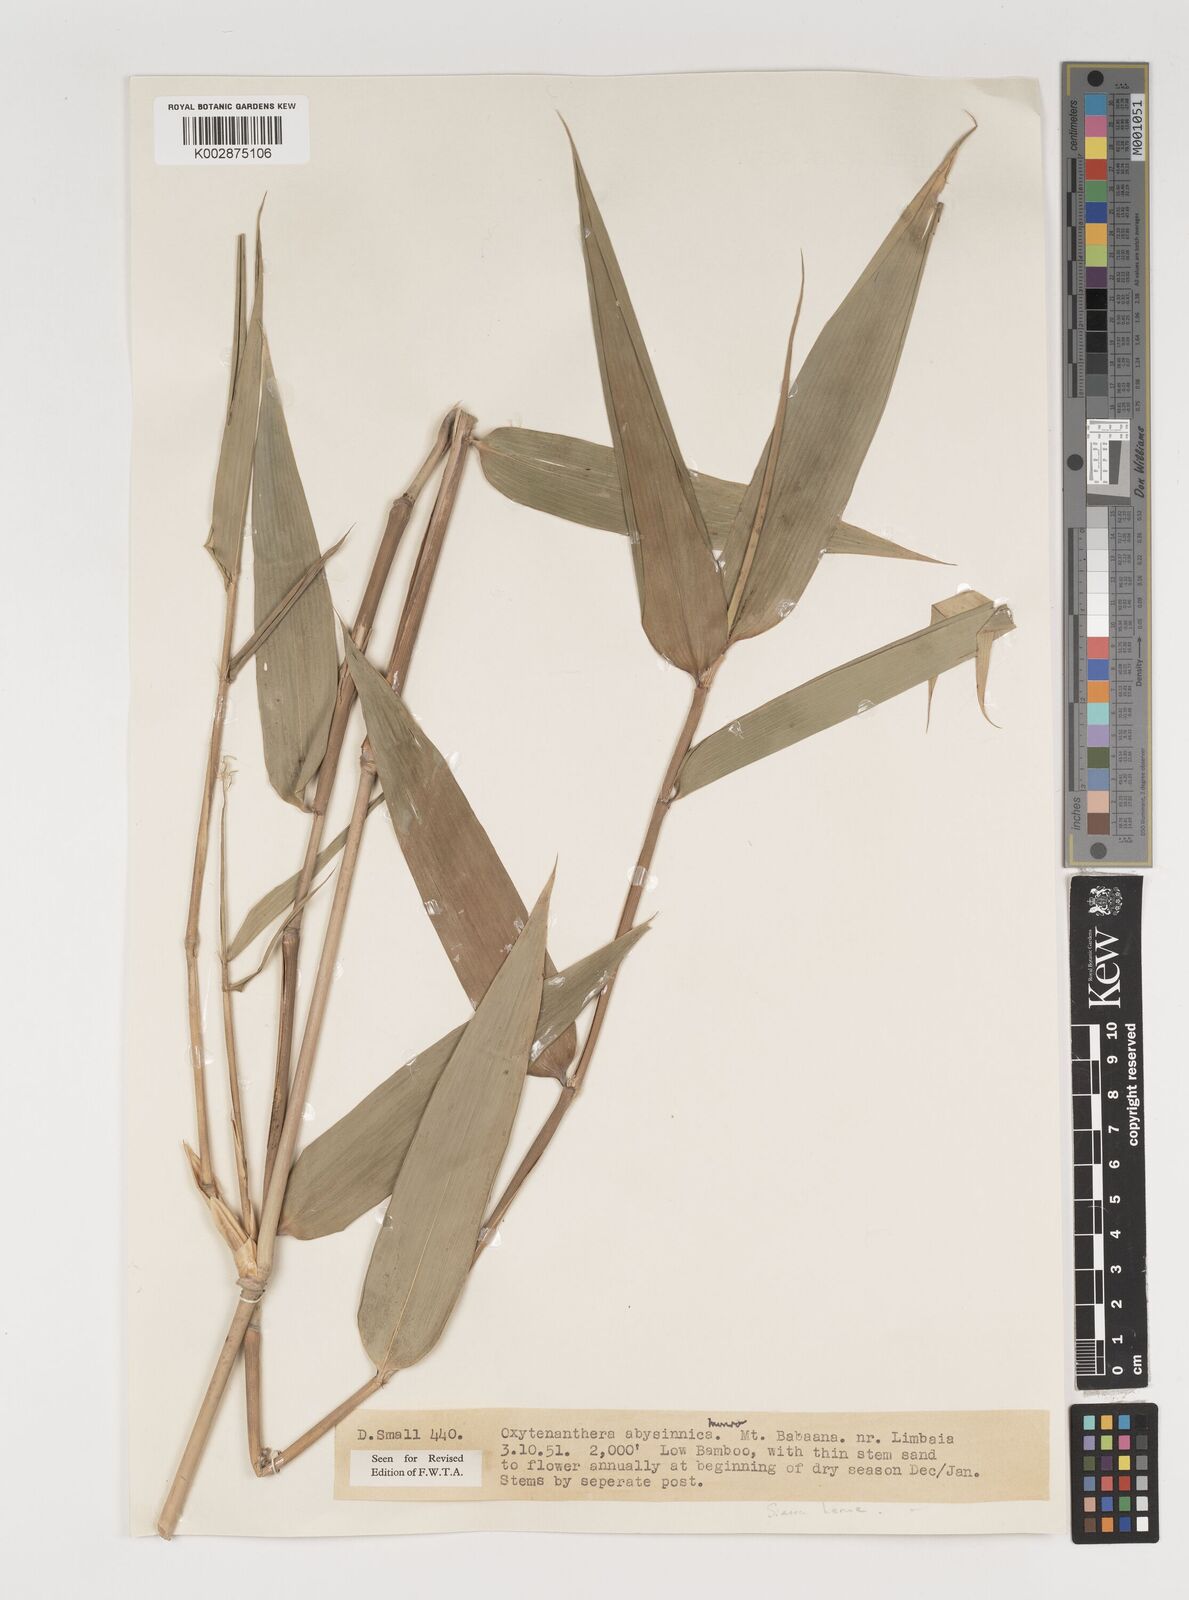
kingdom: Plantae
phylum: Tracheophyta
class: Liliopsida
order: Poales
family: Poaceae
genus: Oxytenanthera
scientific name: Oxytenanthera abyssinica
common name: Wine bamboo
